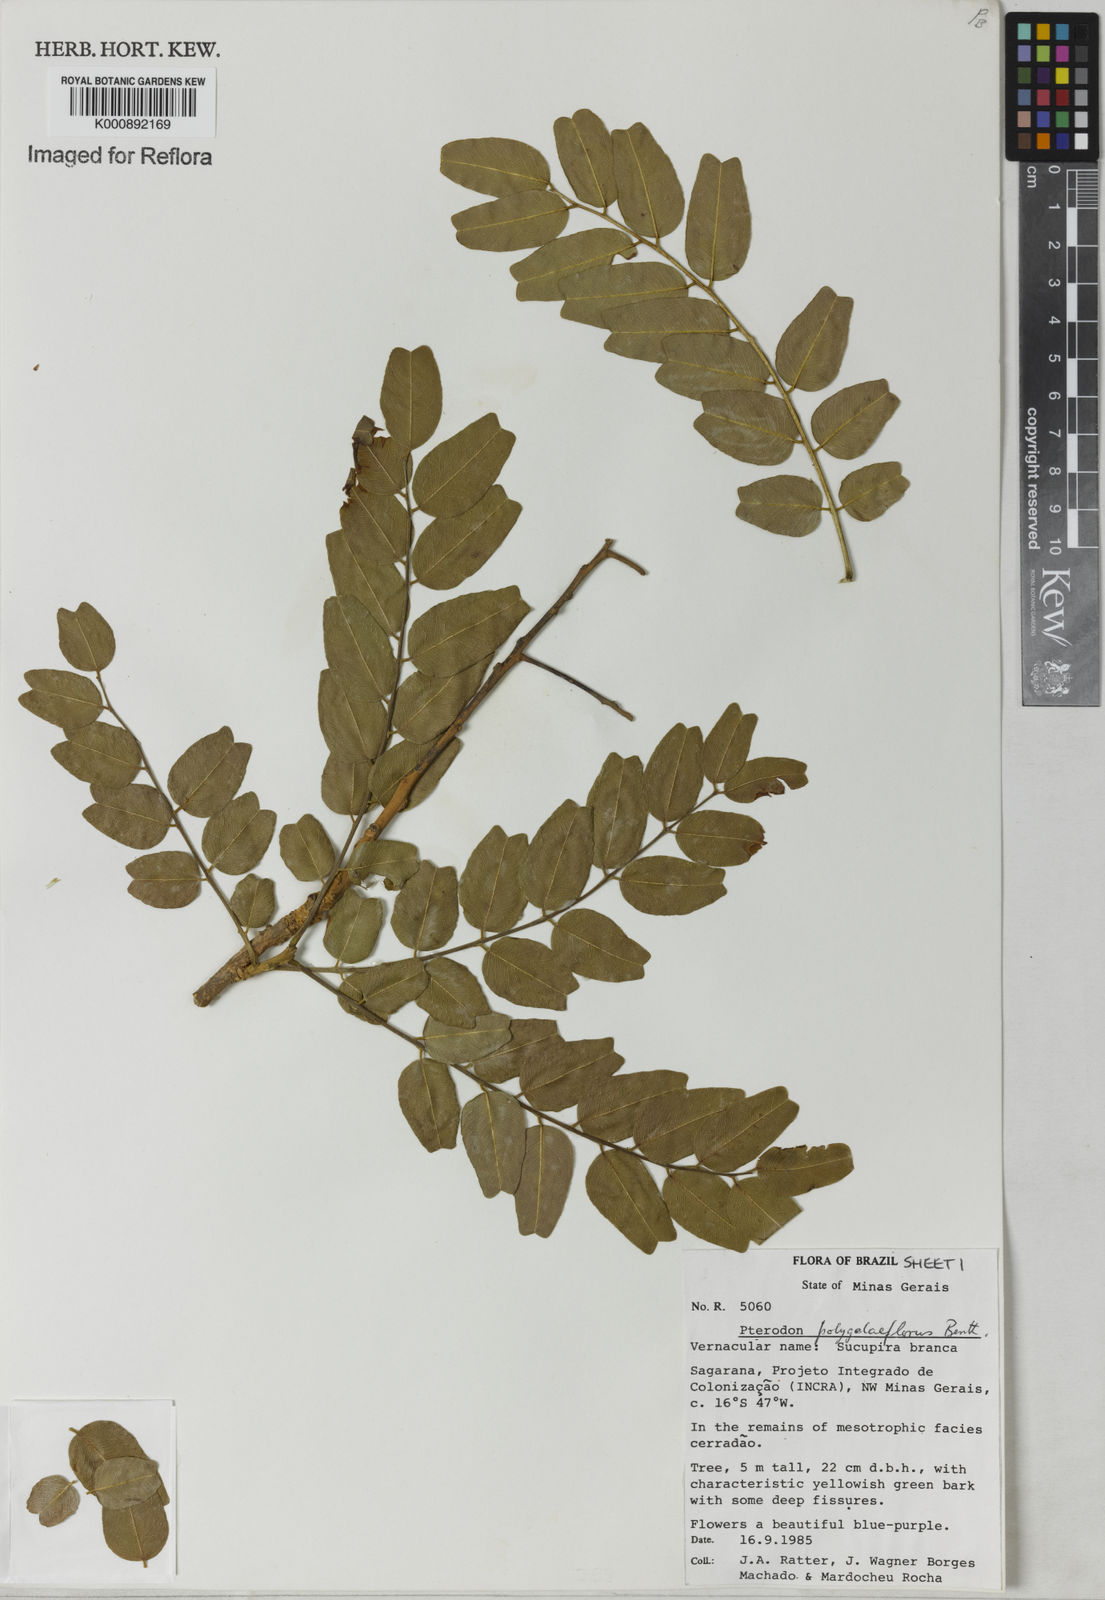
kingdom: Plantae
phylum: Tracheophyta
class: Magnoliopsida
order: Fabales
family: Fabaceae
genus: Pterodon
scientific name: Pterodon emarginatus
